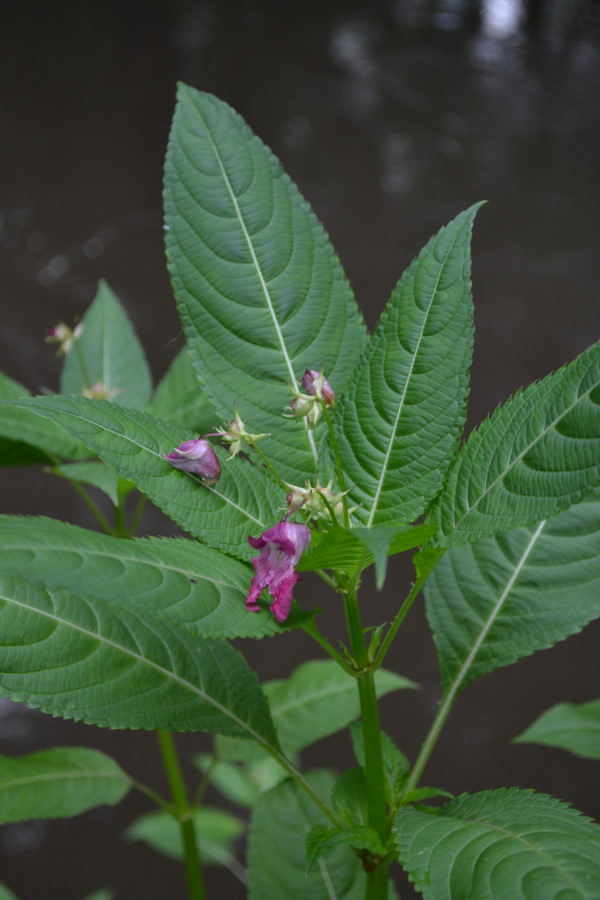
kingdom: Plantae
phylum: Tracheophyta
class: Magnoliopsida
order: Ericales
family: Balsaminaceae
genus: Impatiens
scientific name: Impatiens glandulifera
